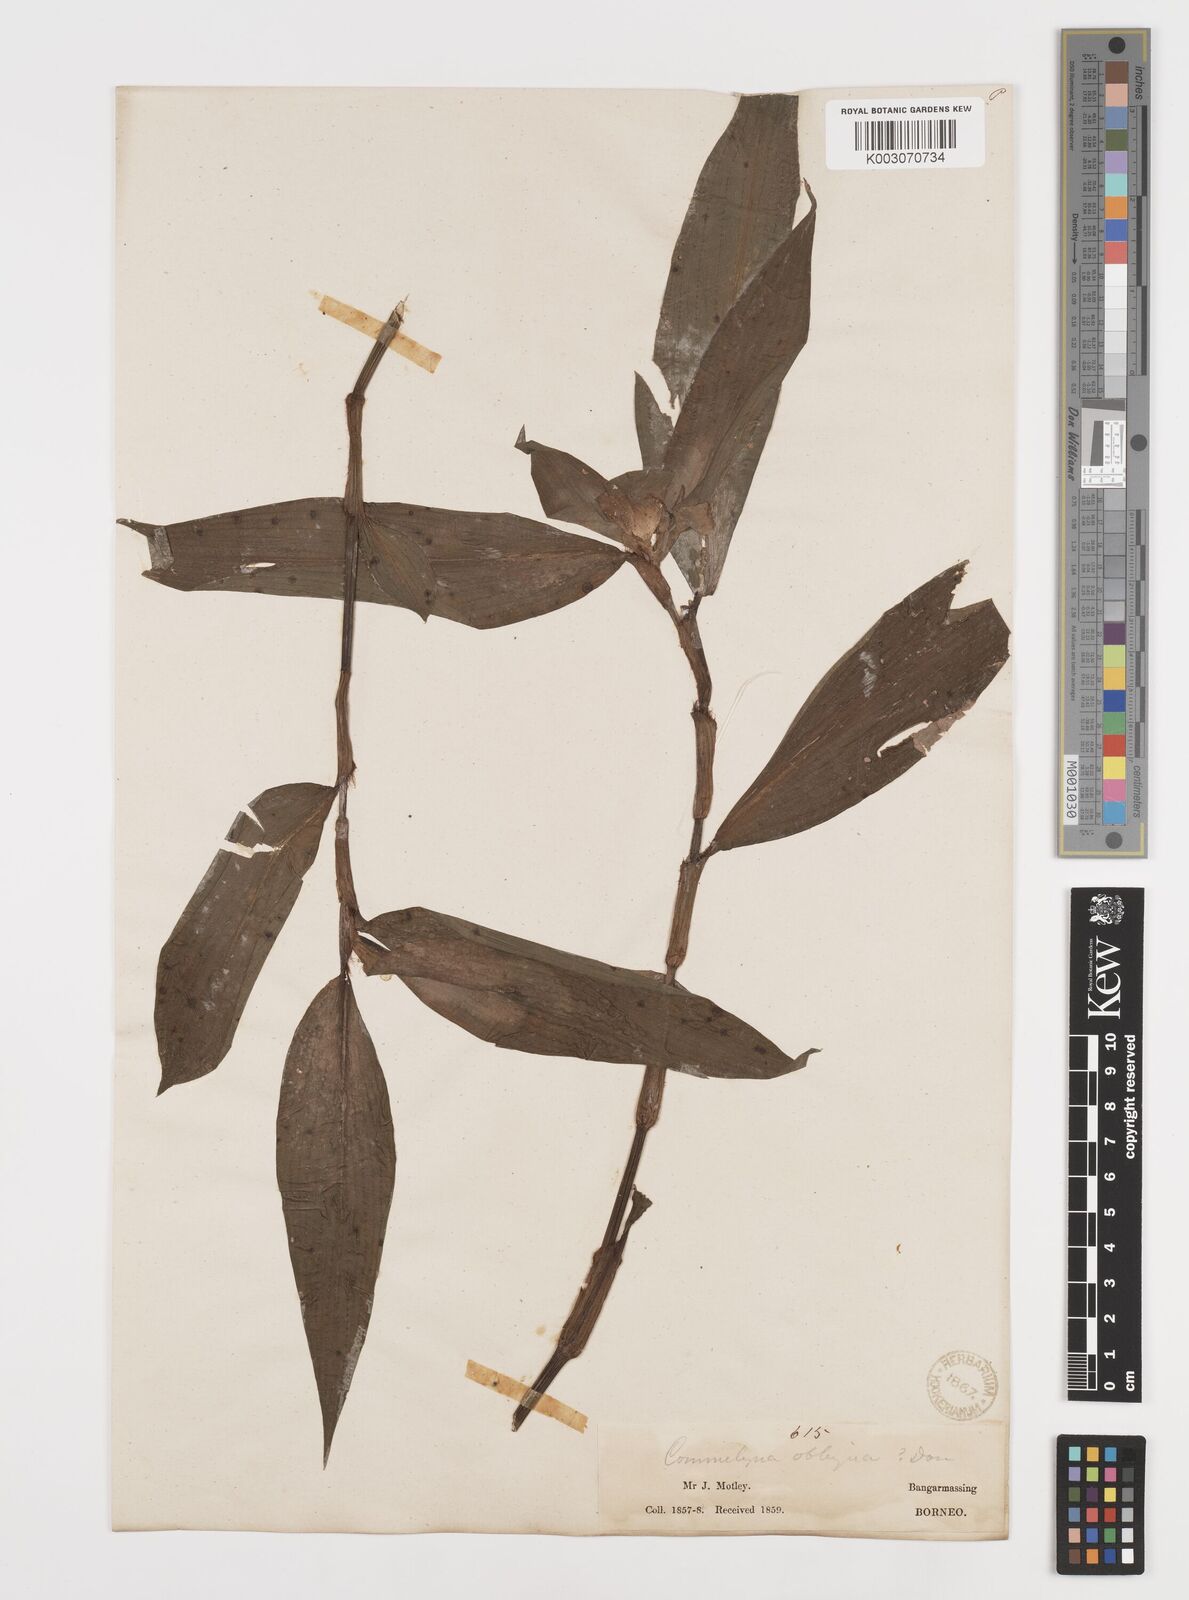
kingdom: Plantae
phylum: Tracheophyta
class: Liliopsida
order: Commelinales
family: Commelinaceae
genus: Commelina
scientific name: Commelina paludosa
